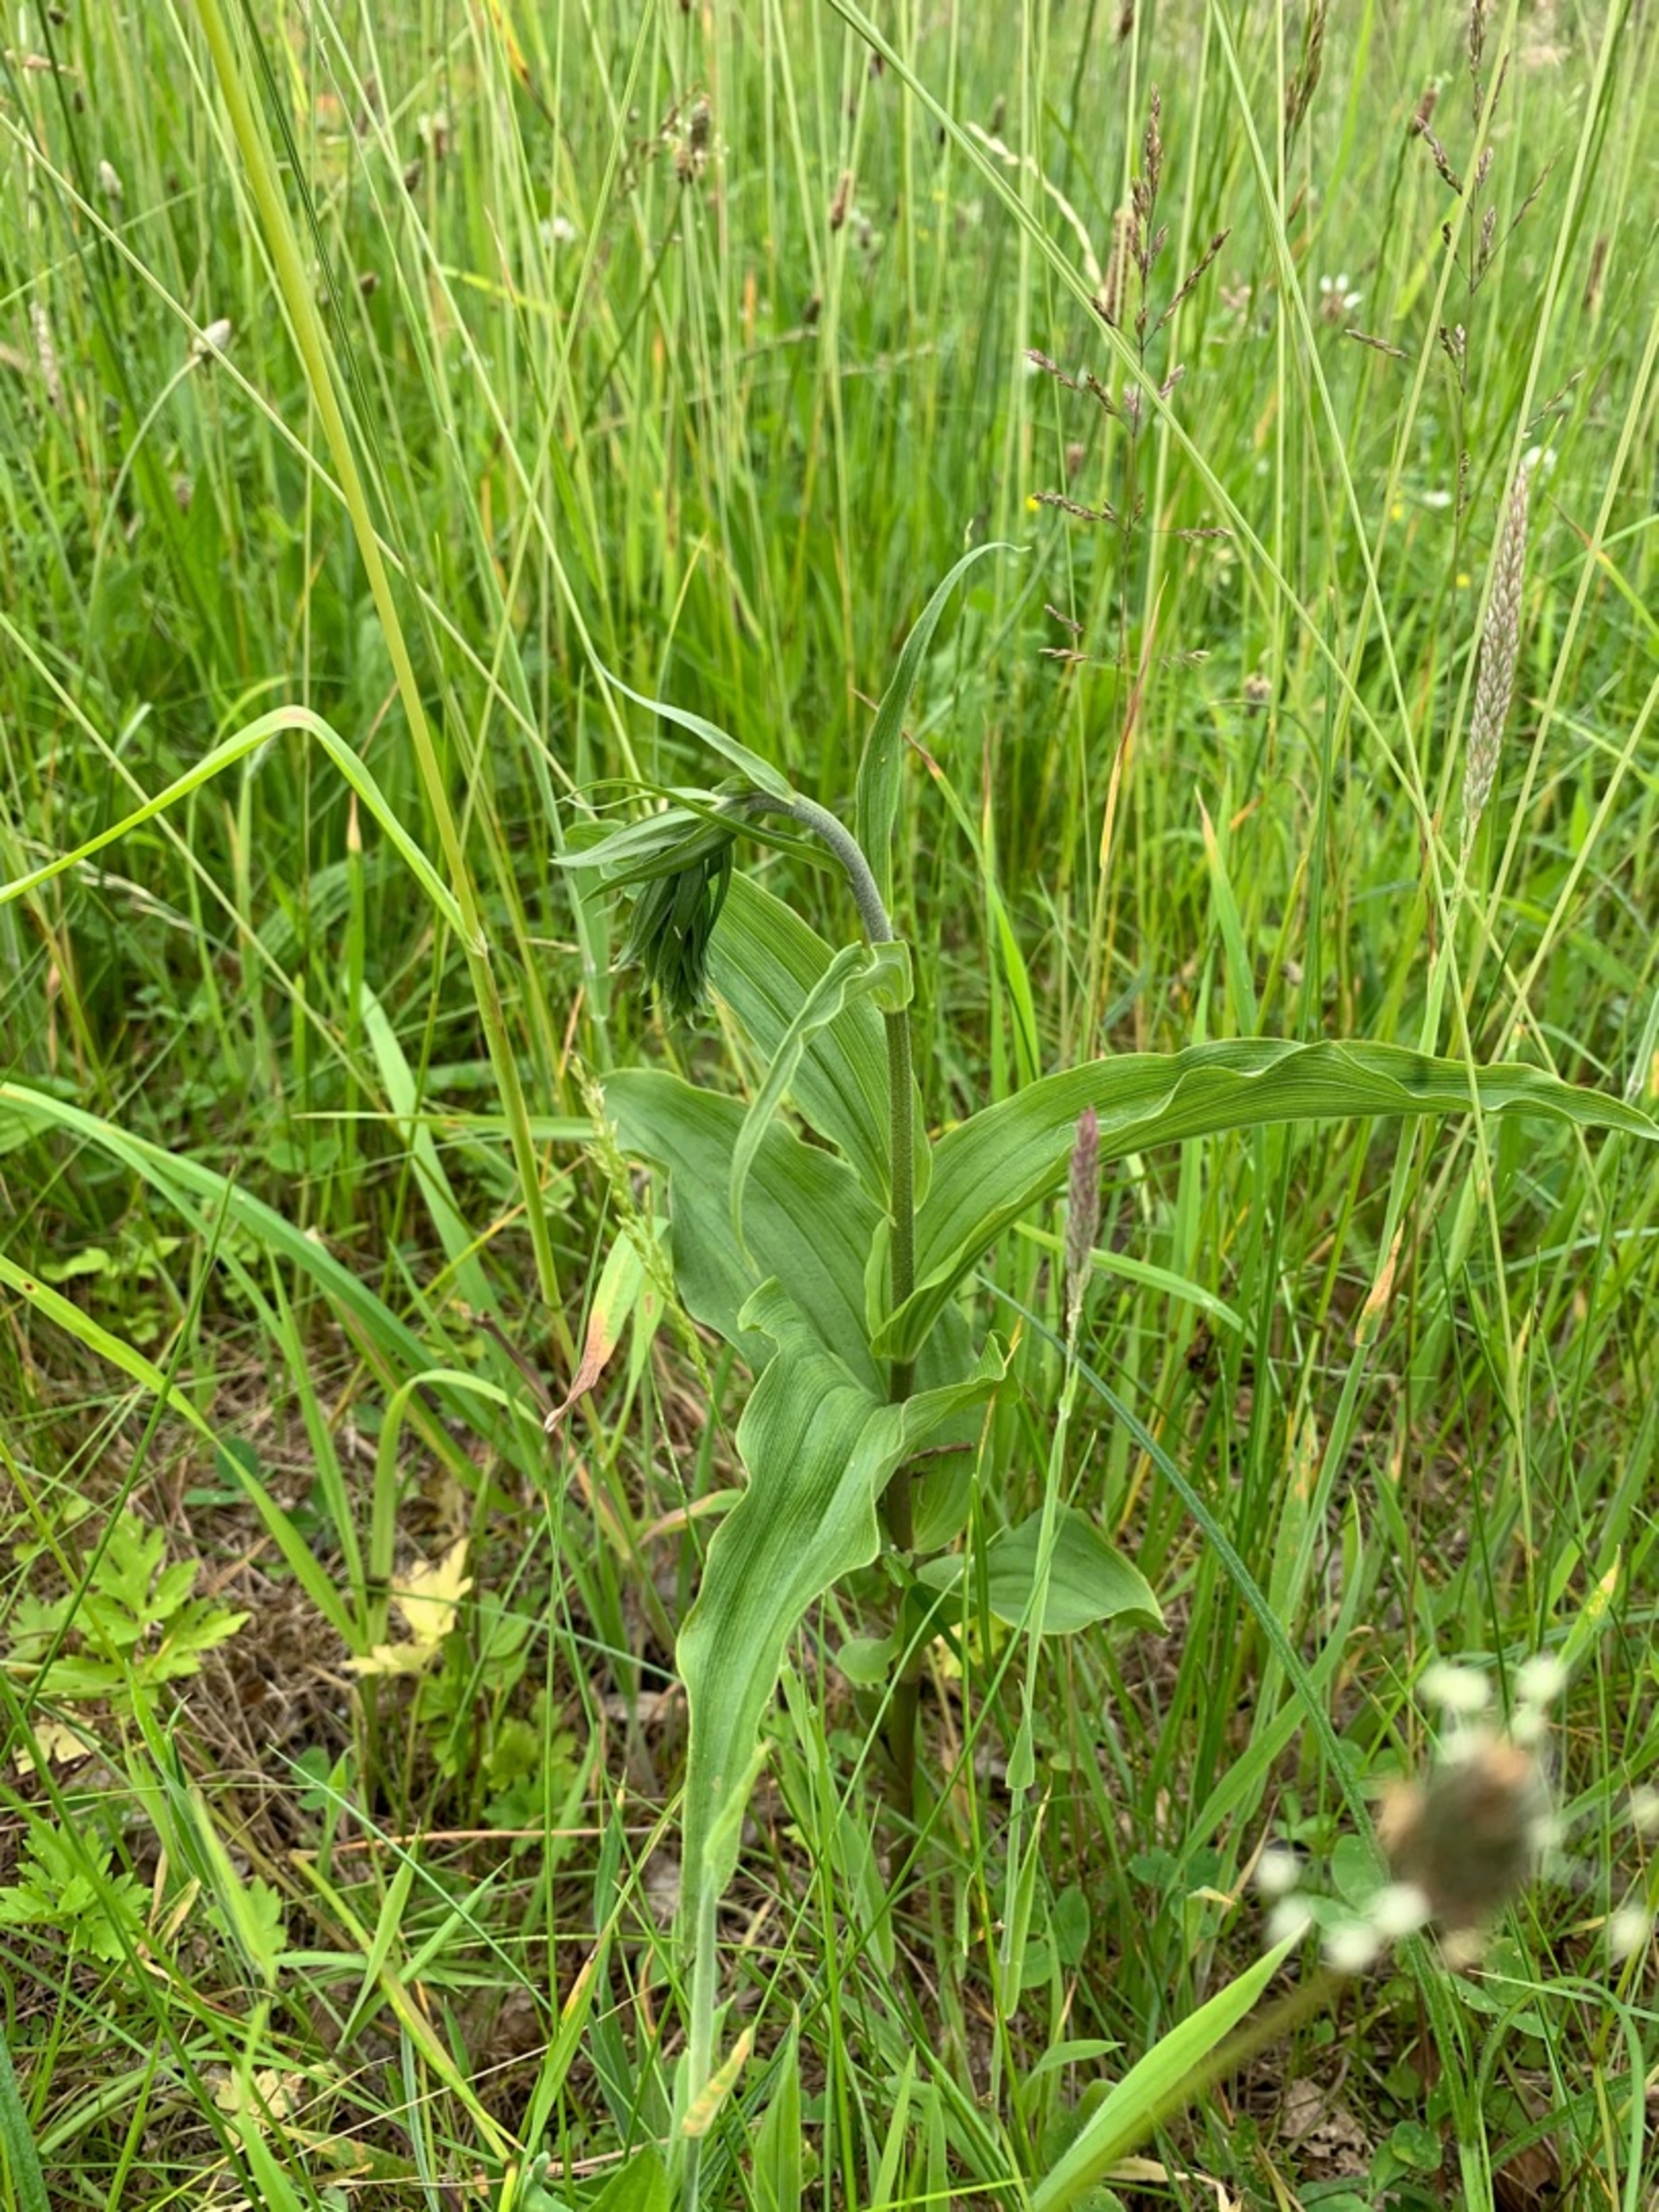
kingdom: Plantae
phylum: Tracheophyta
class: Liliopsida
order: Asparagales
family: Orchidaceae
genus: Epipactis
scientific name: Epipactis helleborine
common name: Skov-hullæbe
